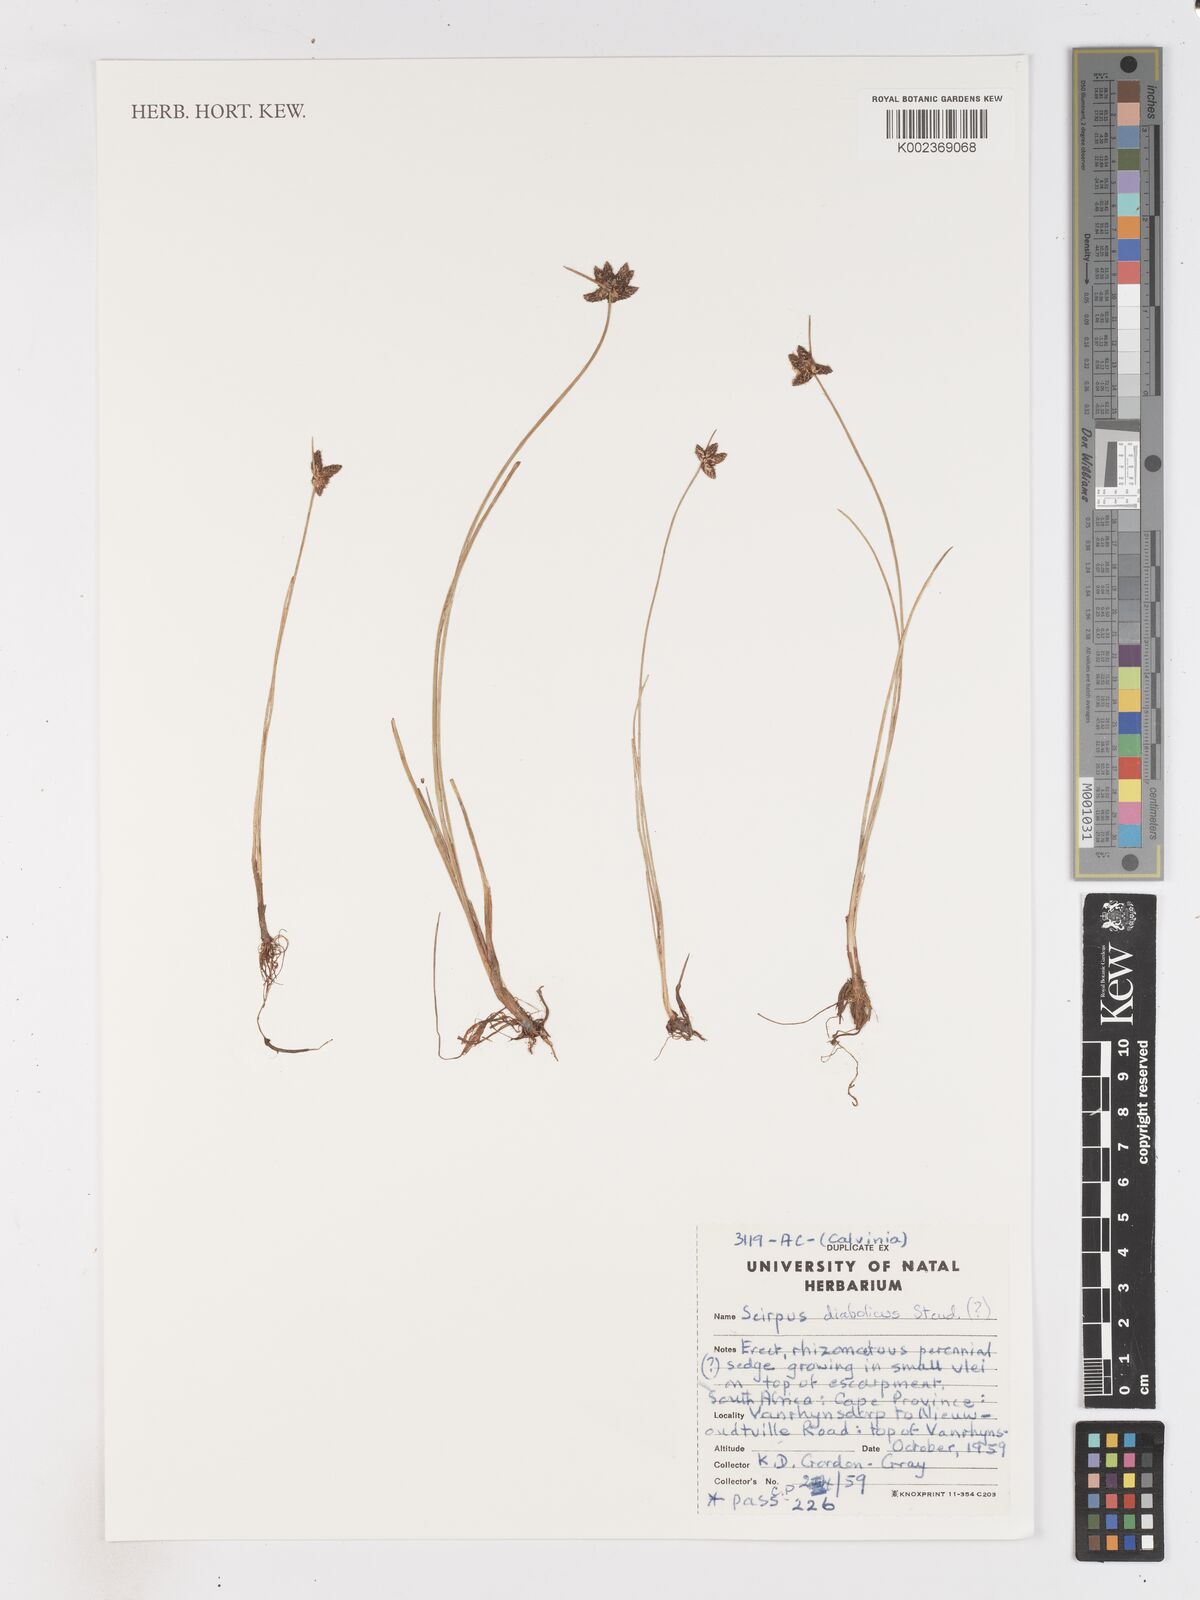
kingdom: Plantae
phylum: Tracheophyta
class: Liliopsida
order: Poales
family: Cyperaceae
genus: Isolepis
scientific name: Isolepis diabolica
